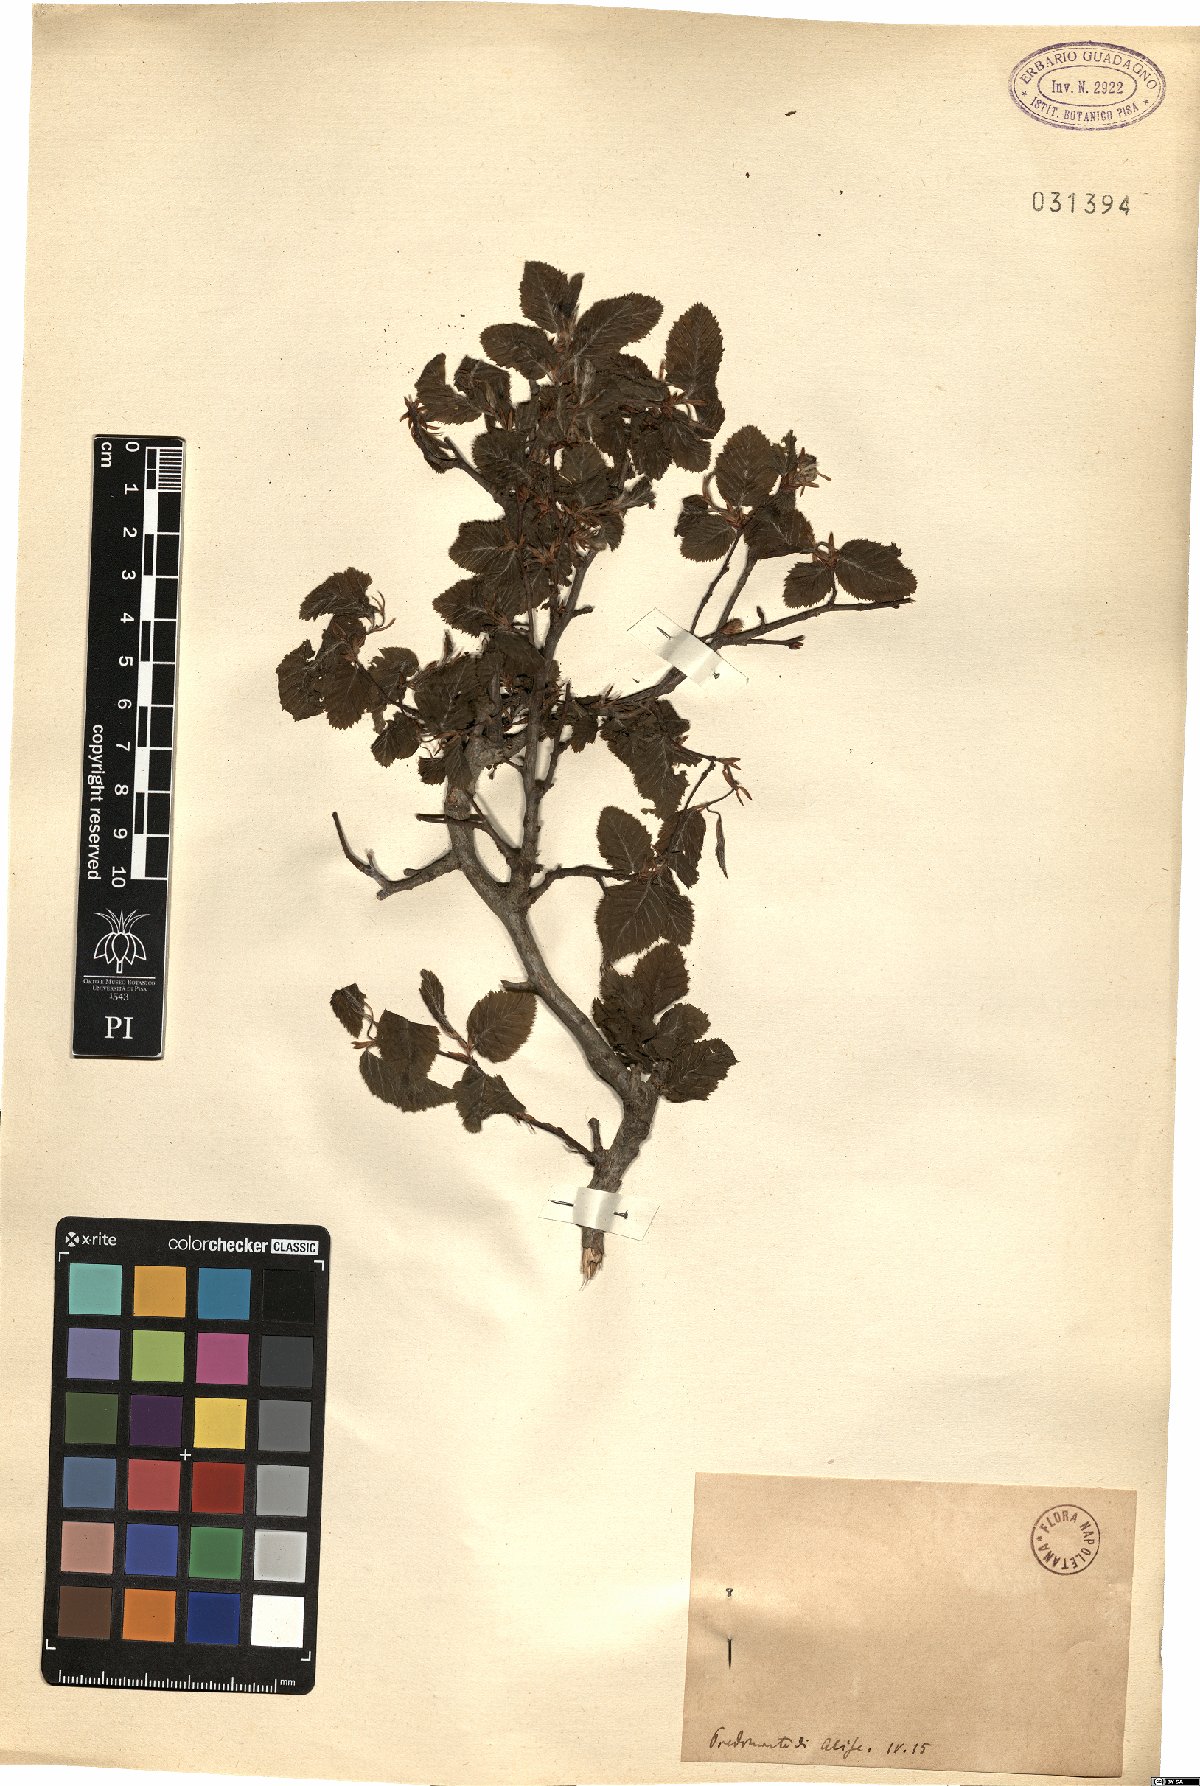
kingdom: Plantae
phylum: Tracheophyta
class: Magnoliopsida
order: Fagales
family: Betulaceae
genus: Ostrya
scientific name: Ostrya
